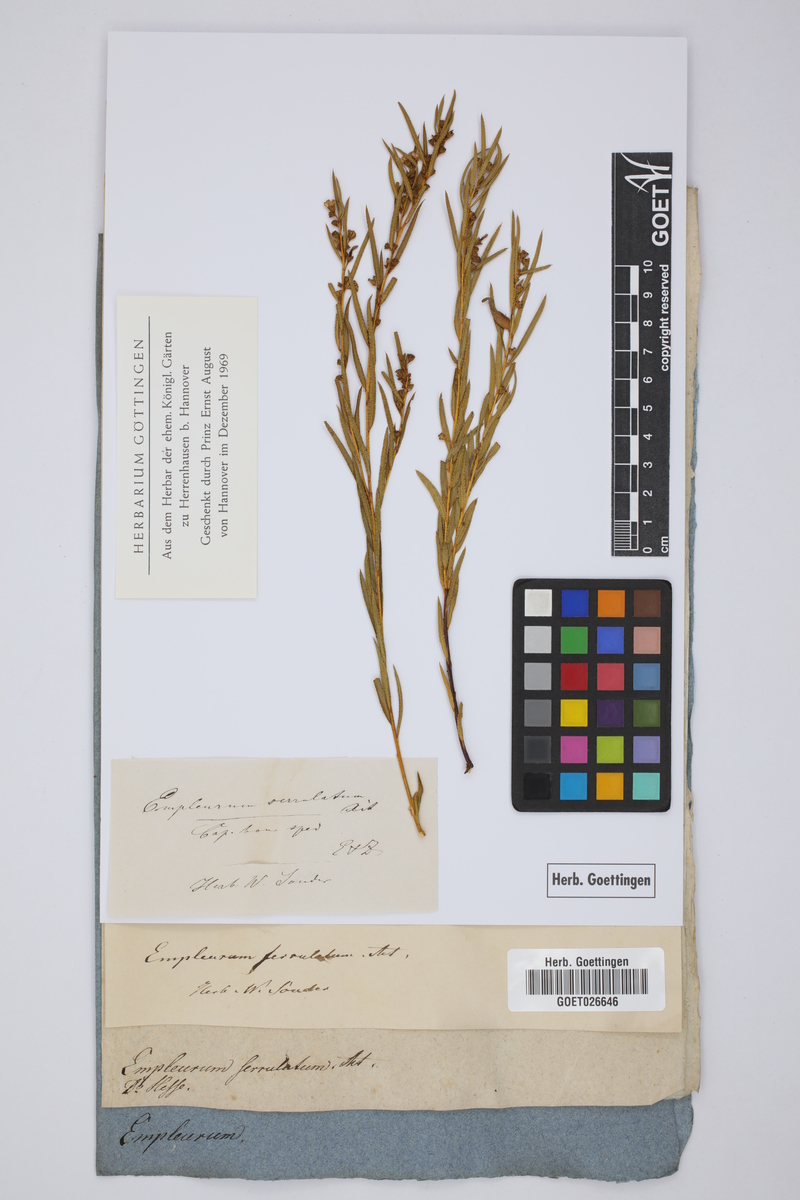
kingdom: Plantae
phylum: Tracheophyta
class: Magnoliopsida
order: Sapindales
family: Rutaceae
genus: Empleurum
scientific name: Empleurum unicapsulare
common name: False buchu
